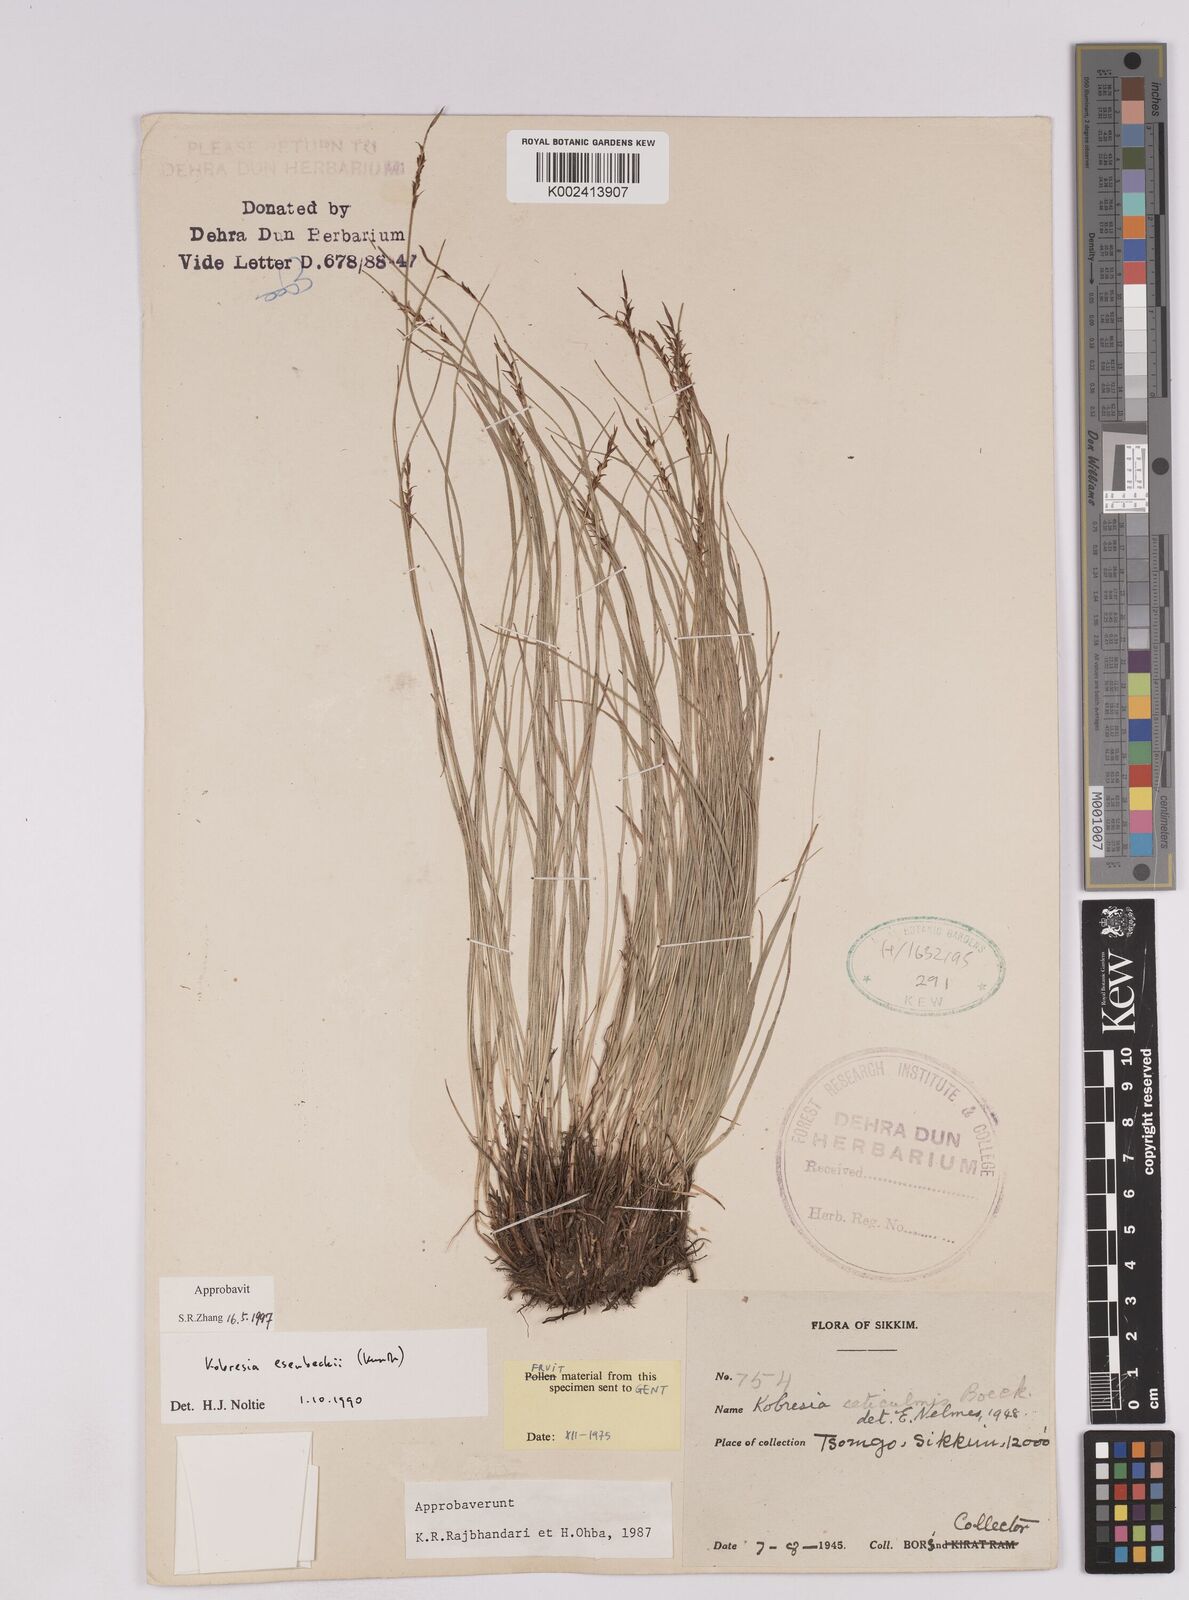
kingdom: Plantae
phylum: Tracheophyta
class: Liliopsida
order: Poales
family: Cyperaceae
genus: Carex
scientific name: Carex esenbeckii
